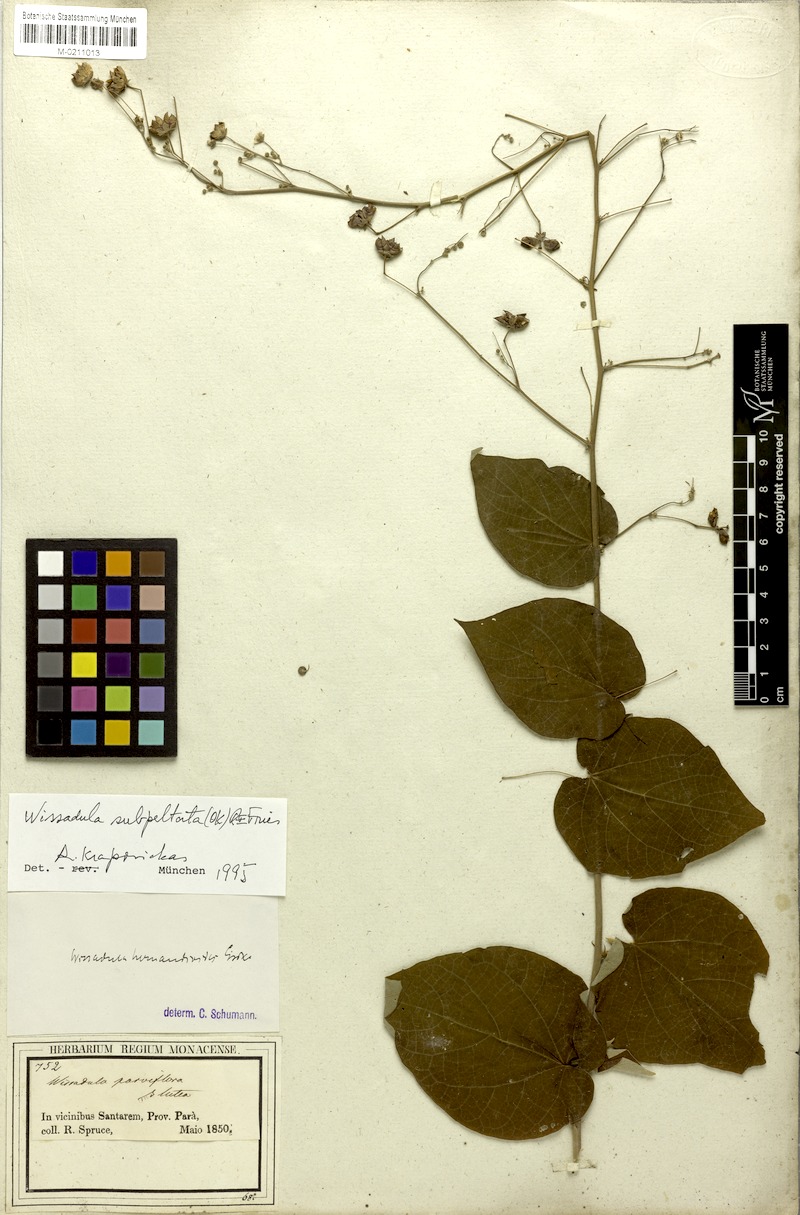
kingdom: Plantae
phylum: Tracheophyta
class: Magnoliopsida
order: Malvales
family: Malvaceae
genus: Wissadula
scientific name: Wissadula subpeltata
